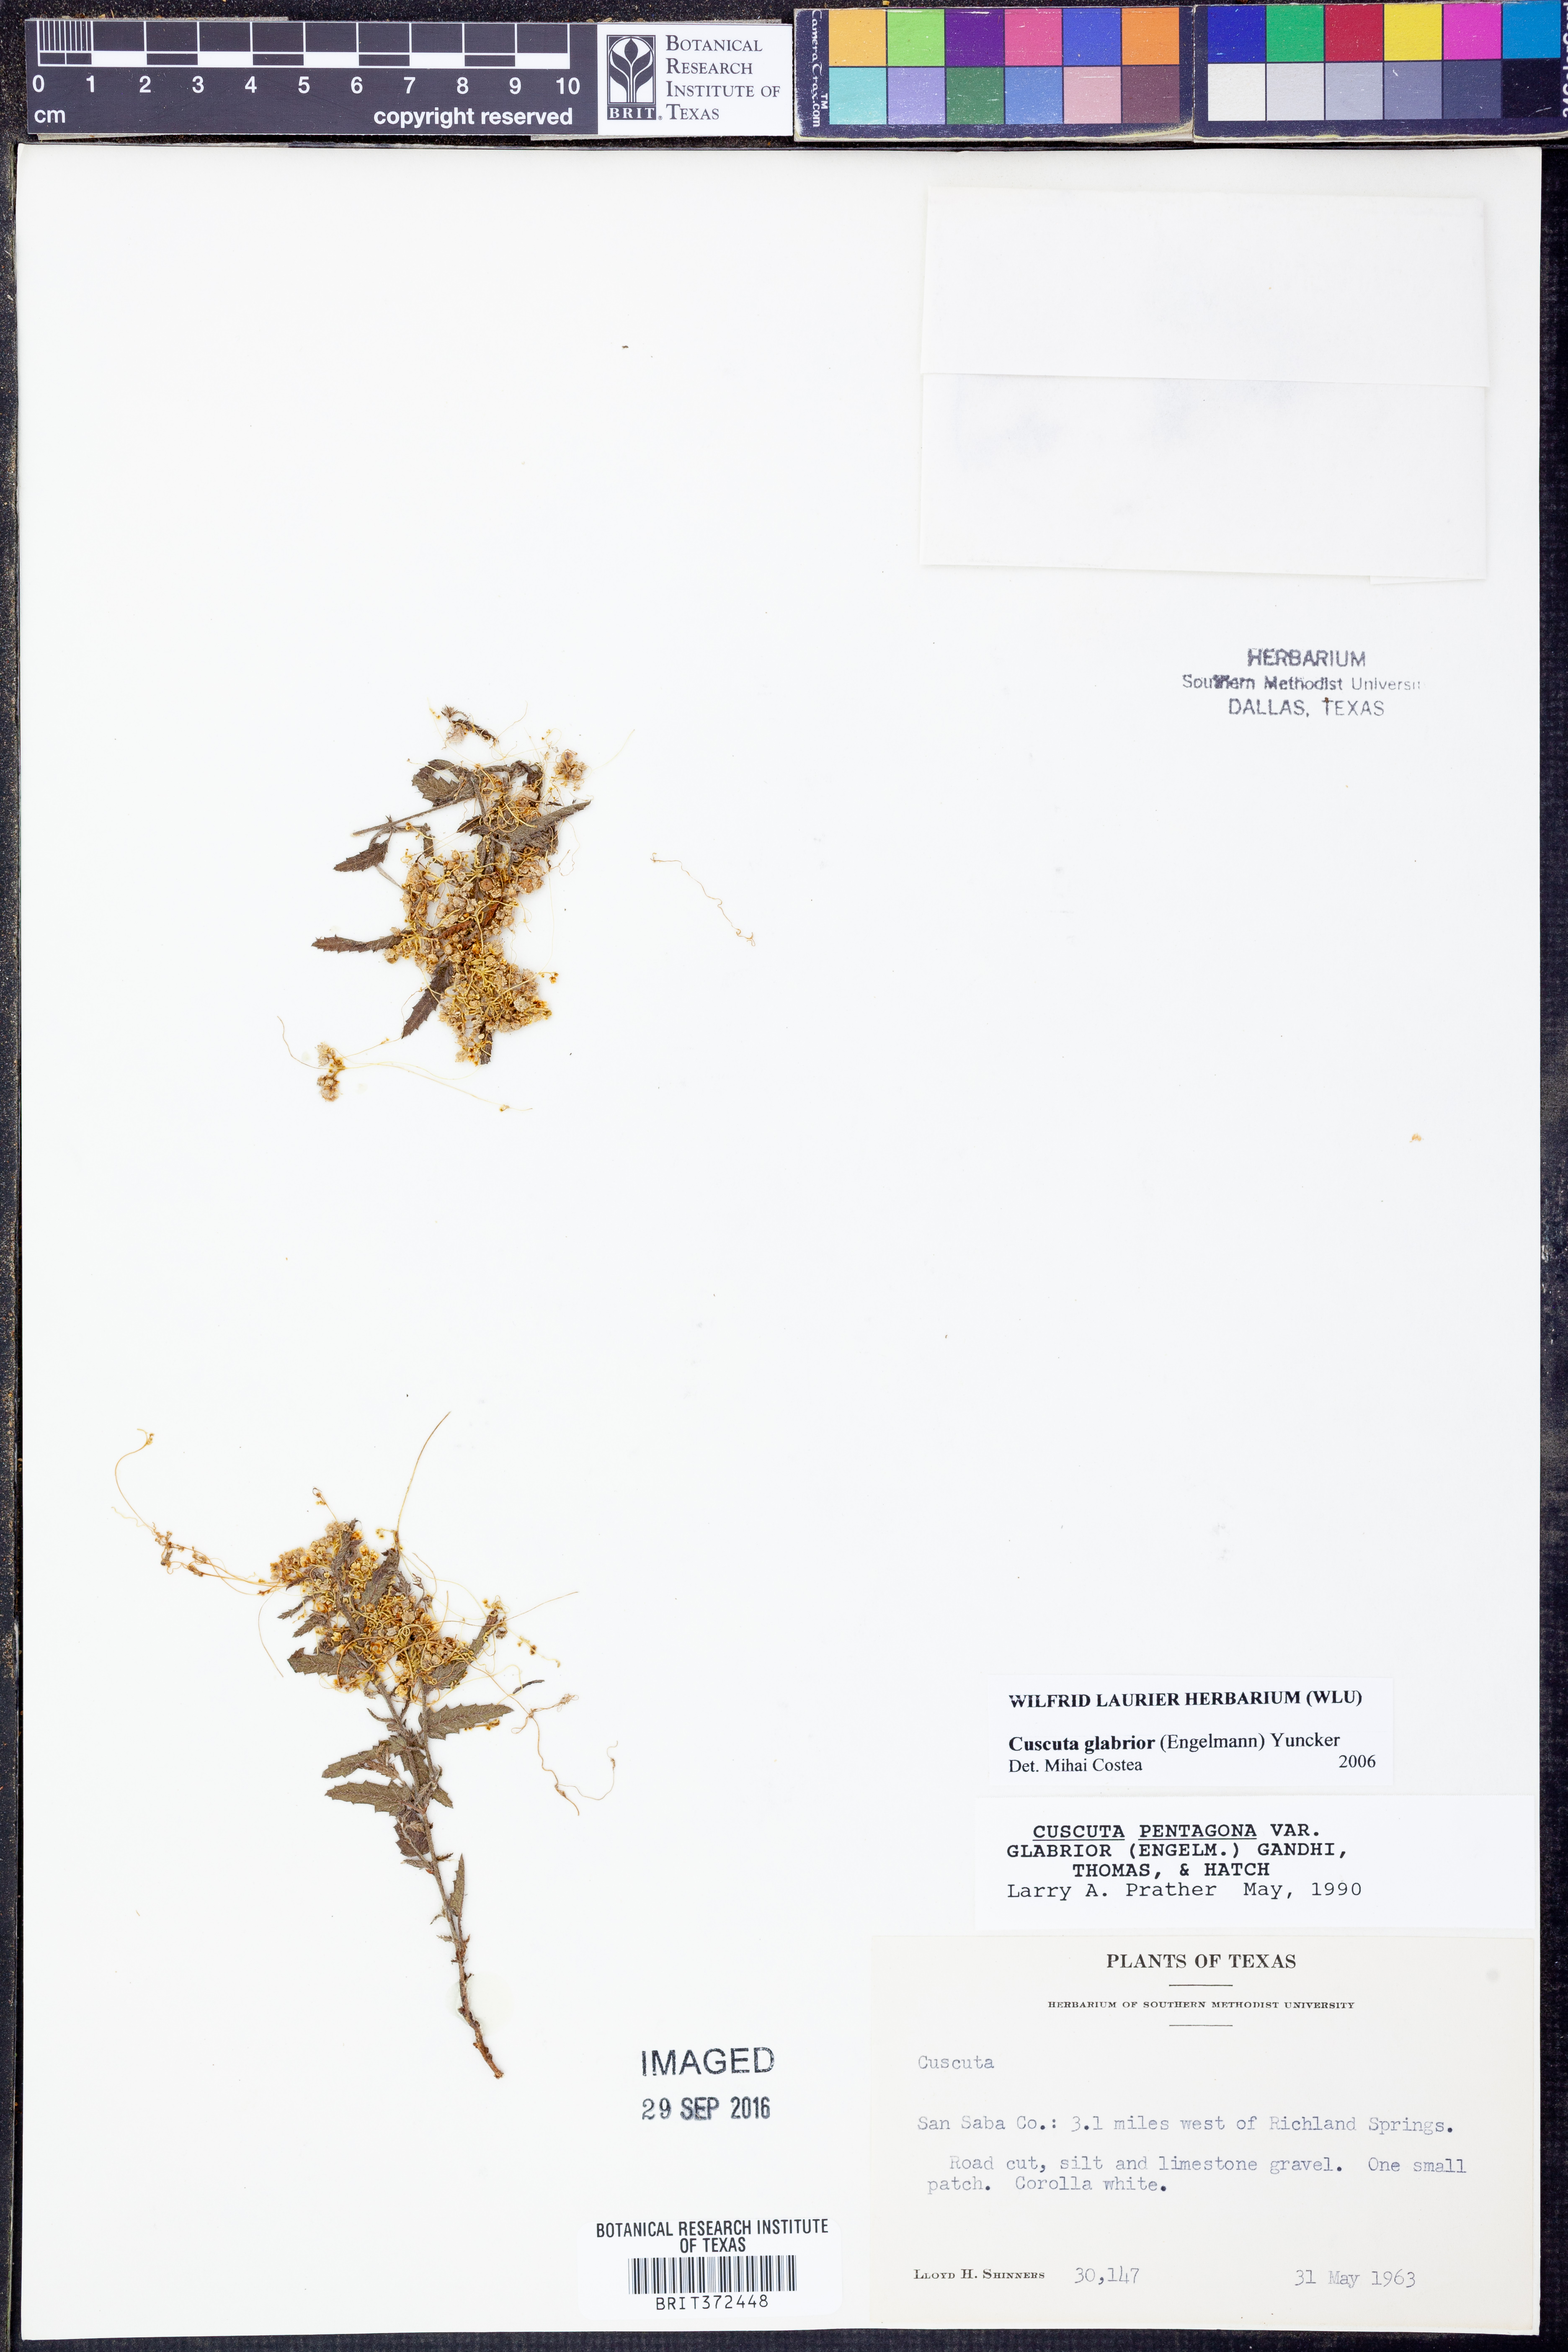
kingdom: Plantae
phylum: Tracheophyta
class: Magnoliopsida
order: Solanales
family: Convolvulaceae
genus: Cuscuta
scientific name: Cuscuta glabrior
